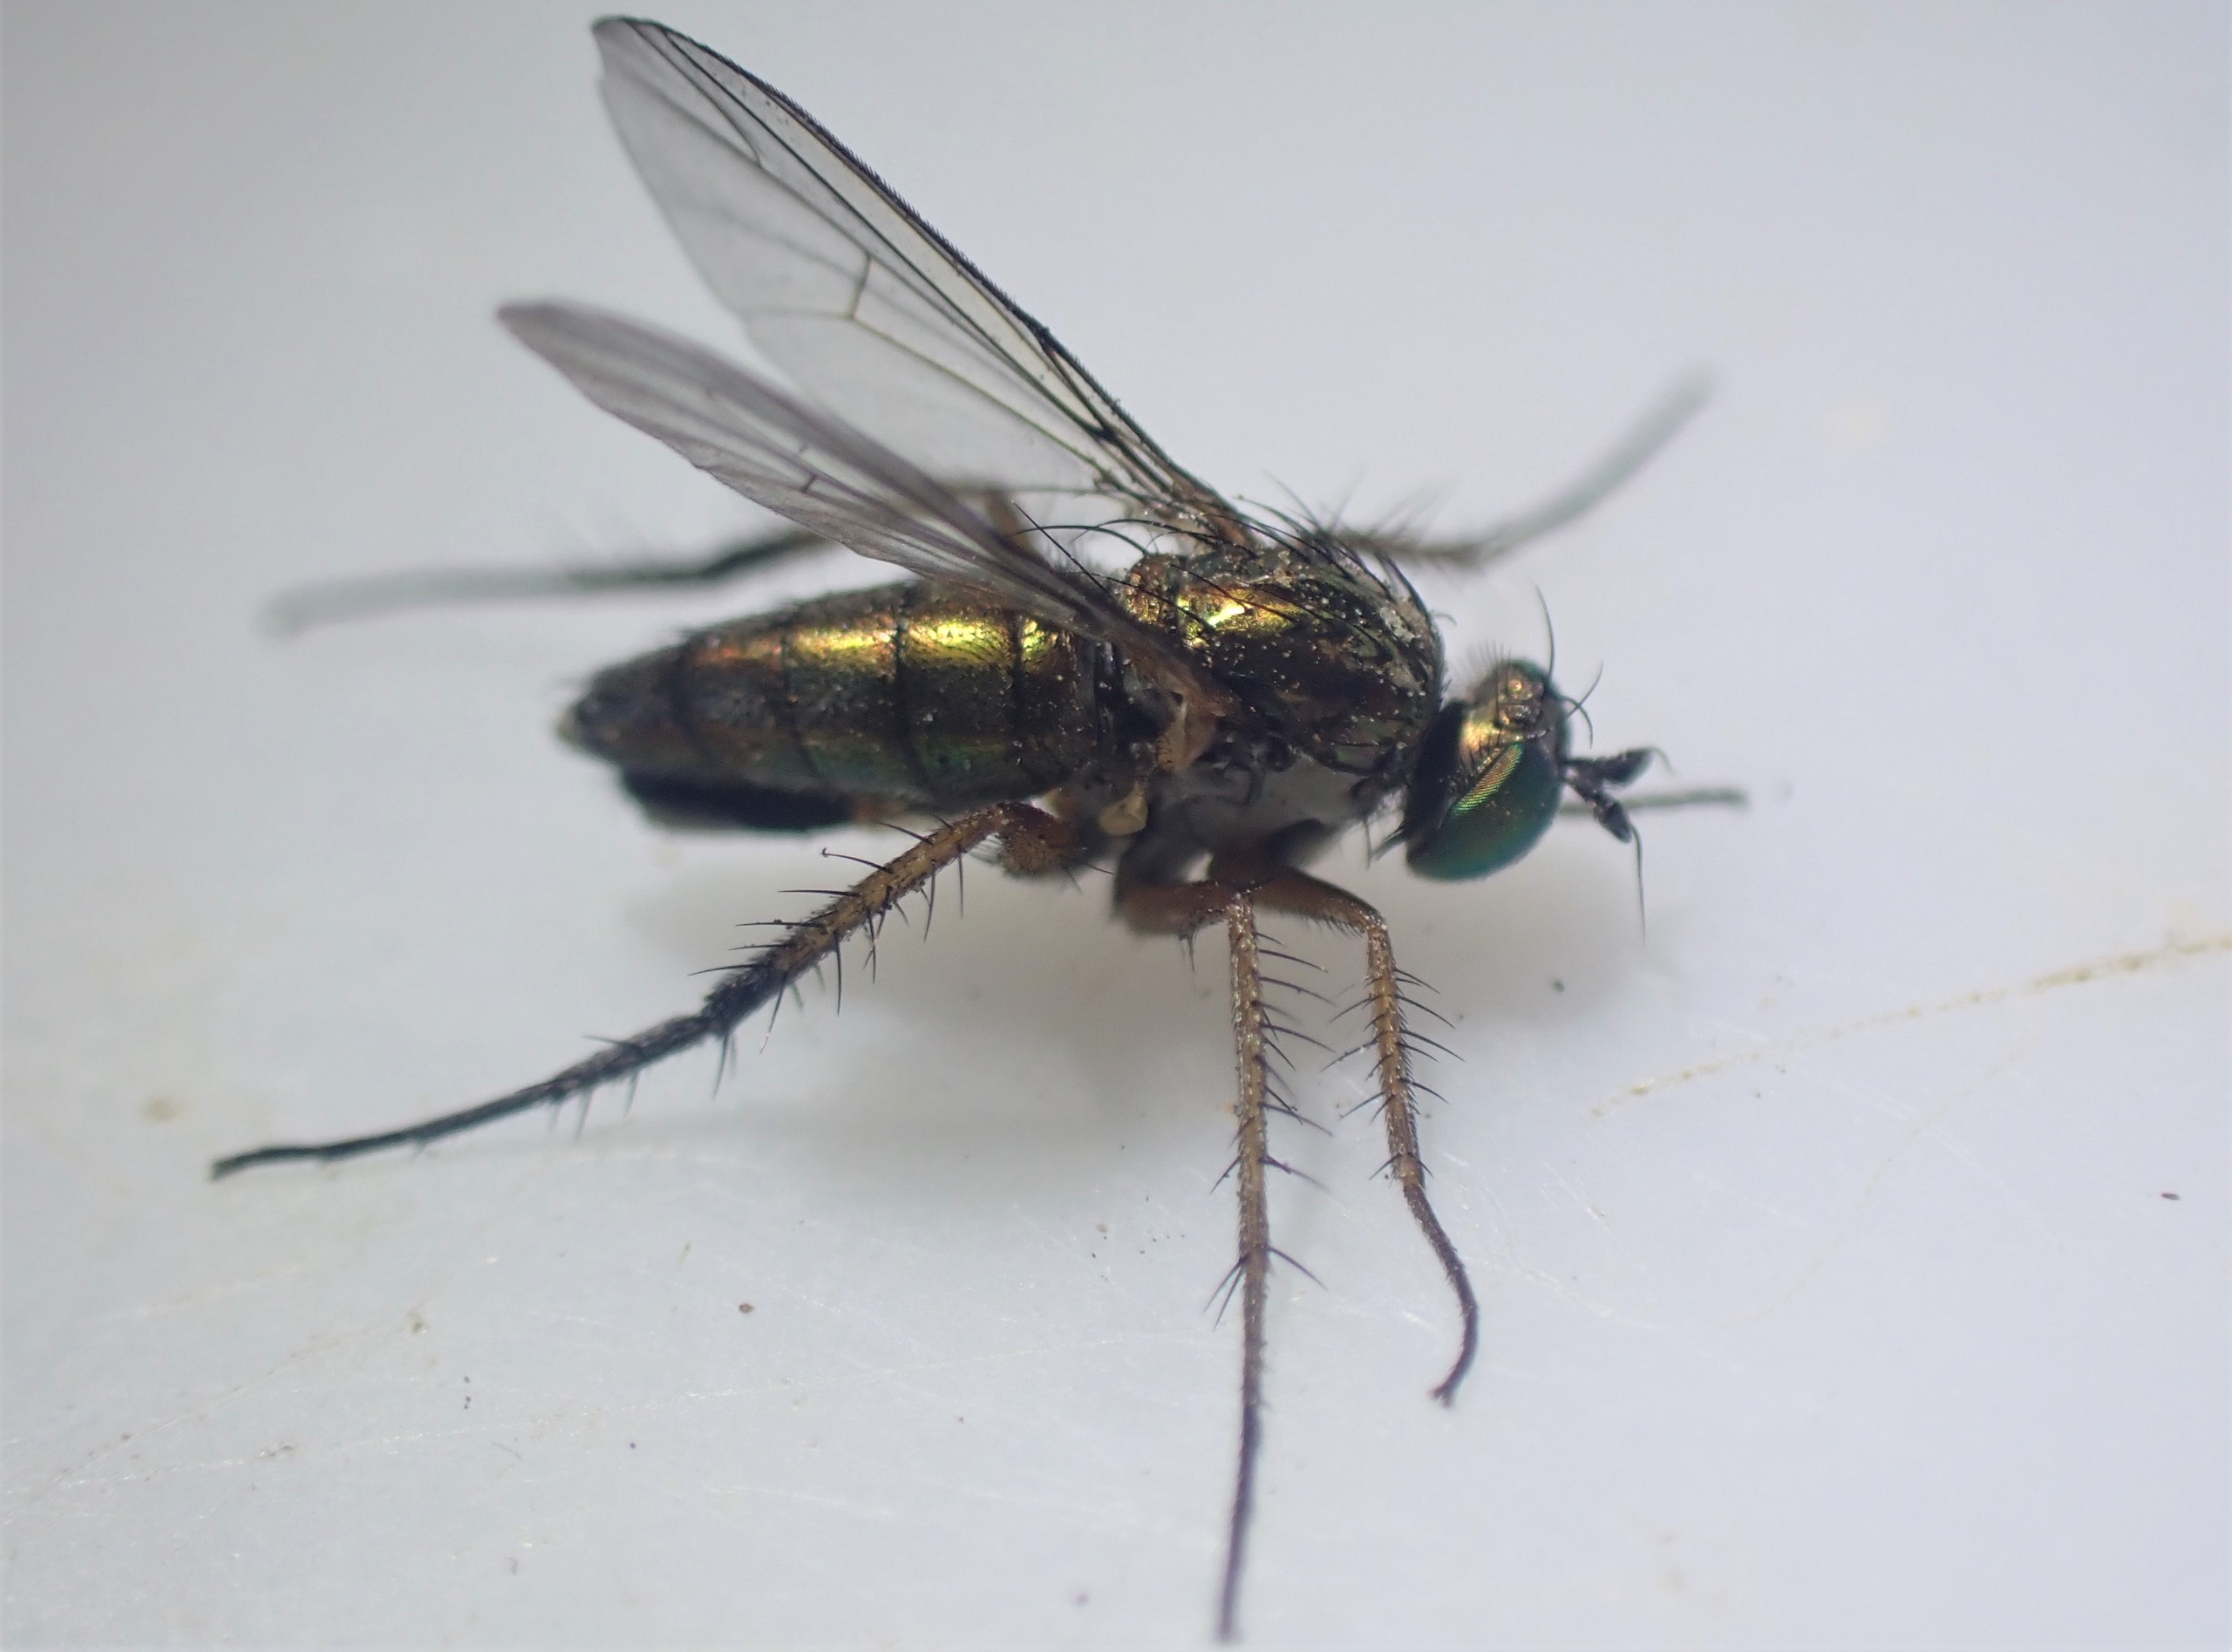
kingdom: Animalia
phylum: Arthropoda
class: Insecta
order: Diptera
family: Dolichopodidae
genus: Dolichopus
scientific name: Dolichopus ungulatus
